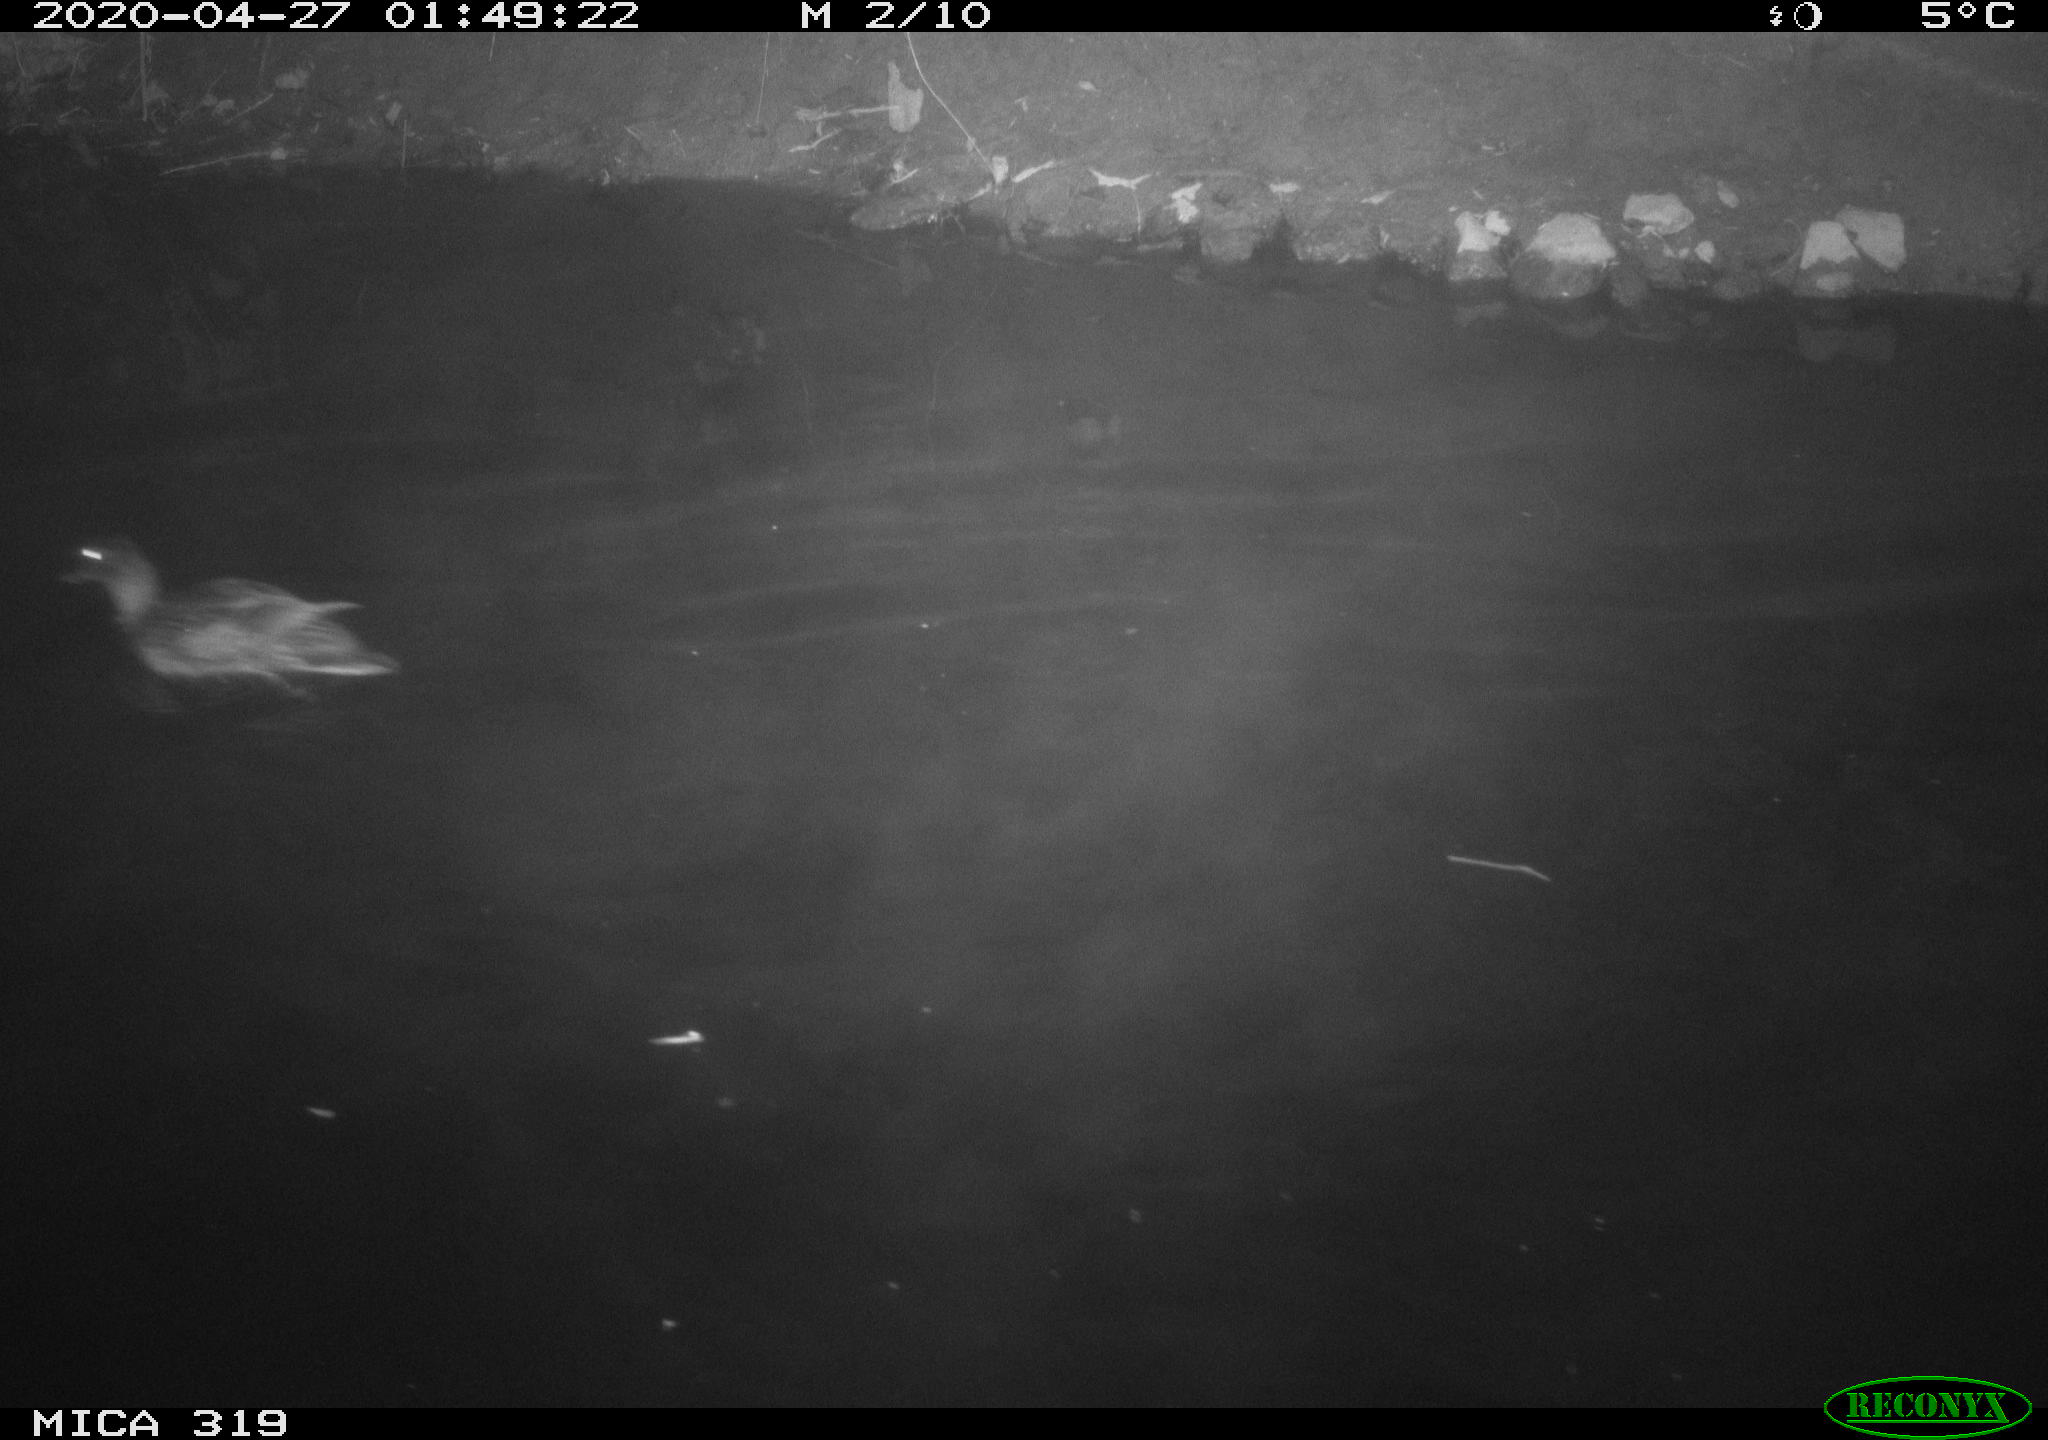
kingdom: Animalia
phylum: Chordata
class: Aves
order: Anseriformes
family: Anatidae
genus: Anas
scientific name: Anas platyrhynchos
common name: Mallard
